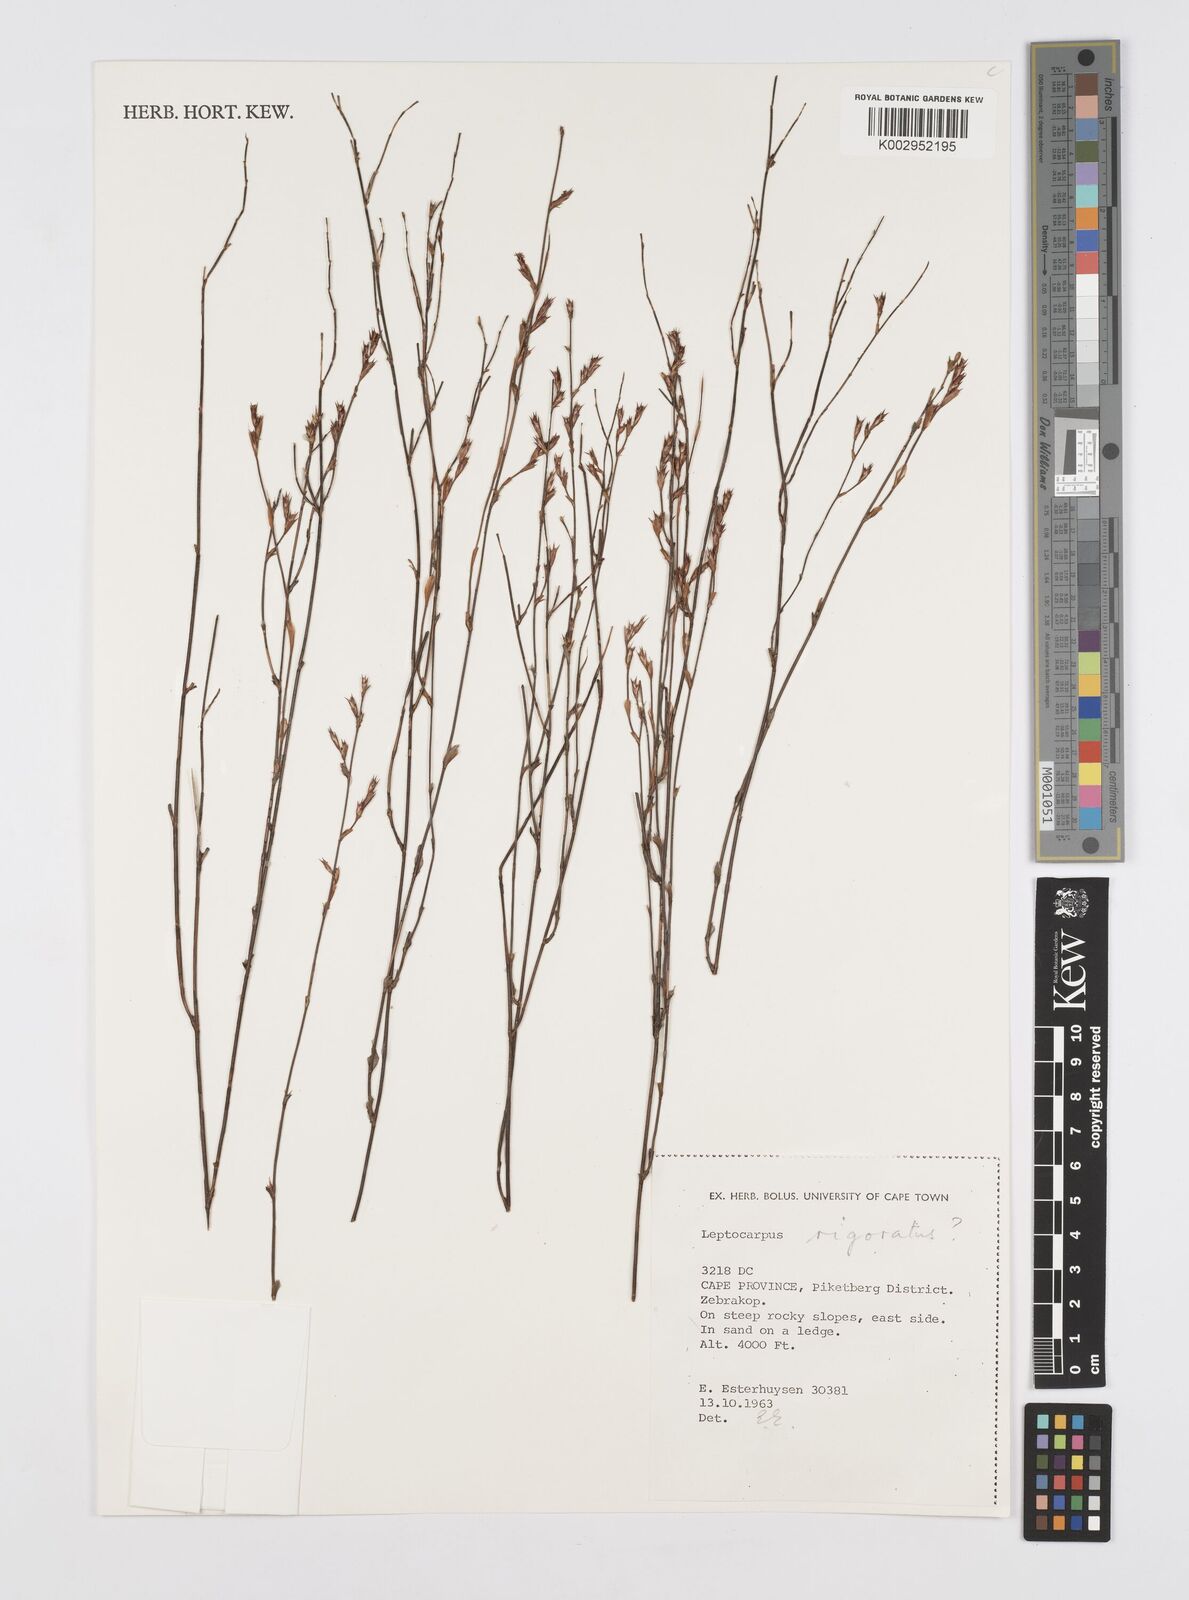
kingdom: Plantae
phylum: Tracheophyta
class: Liliopsida
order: Poales
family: Restionaceae
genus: Restio
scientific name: Restio rigoratus
